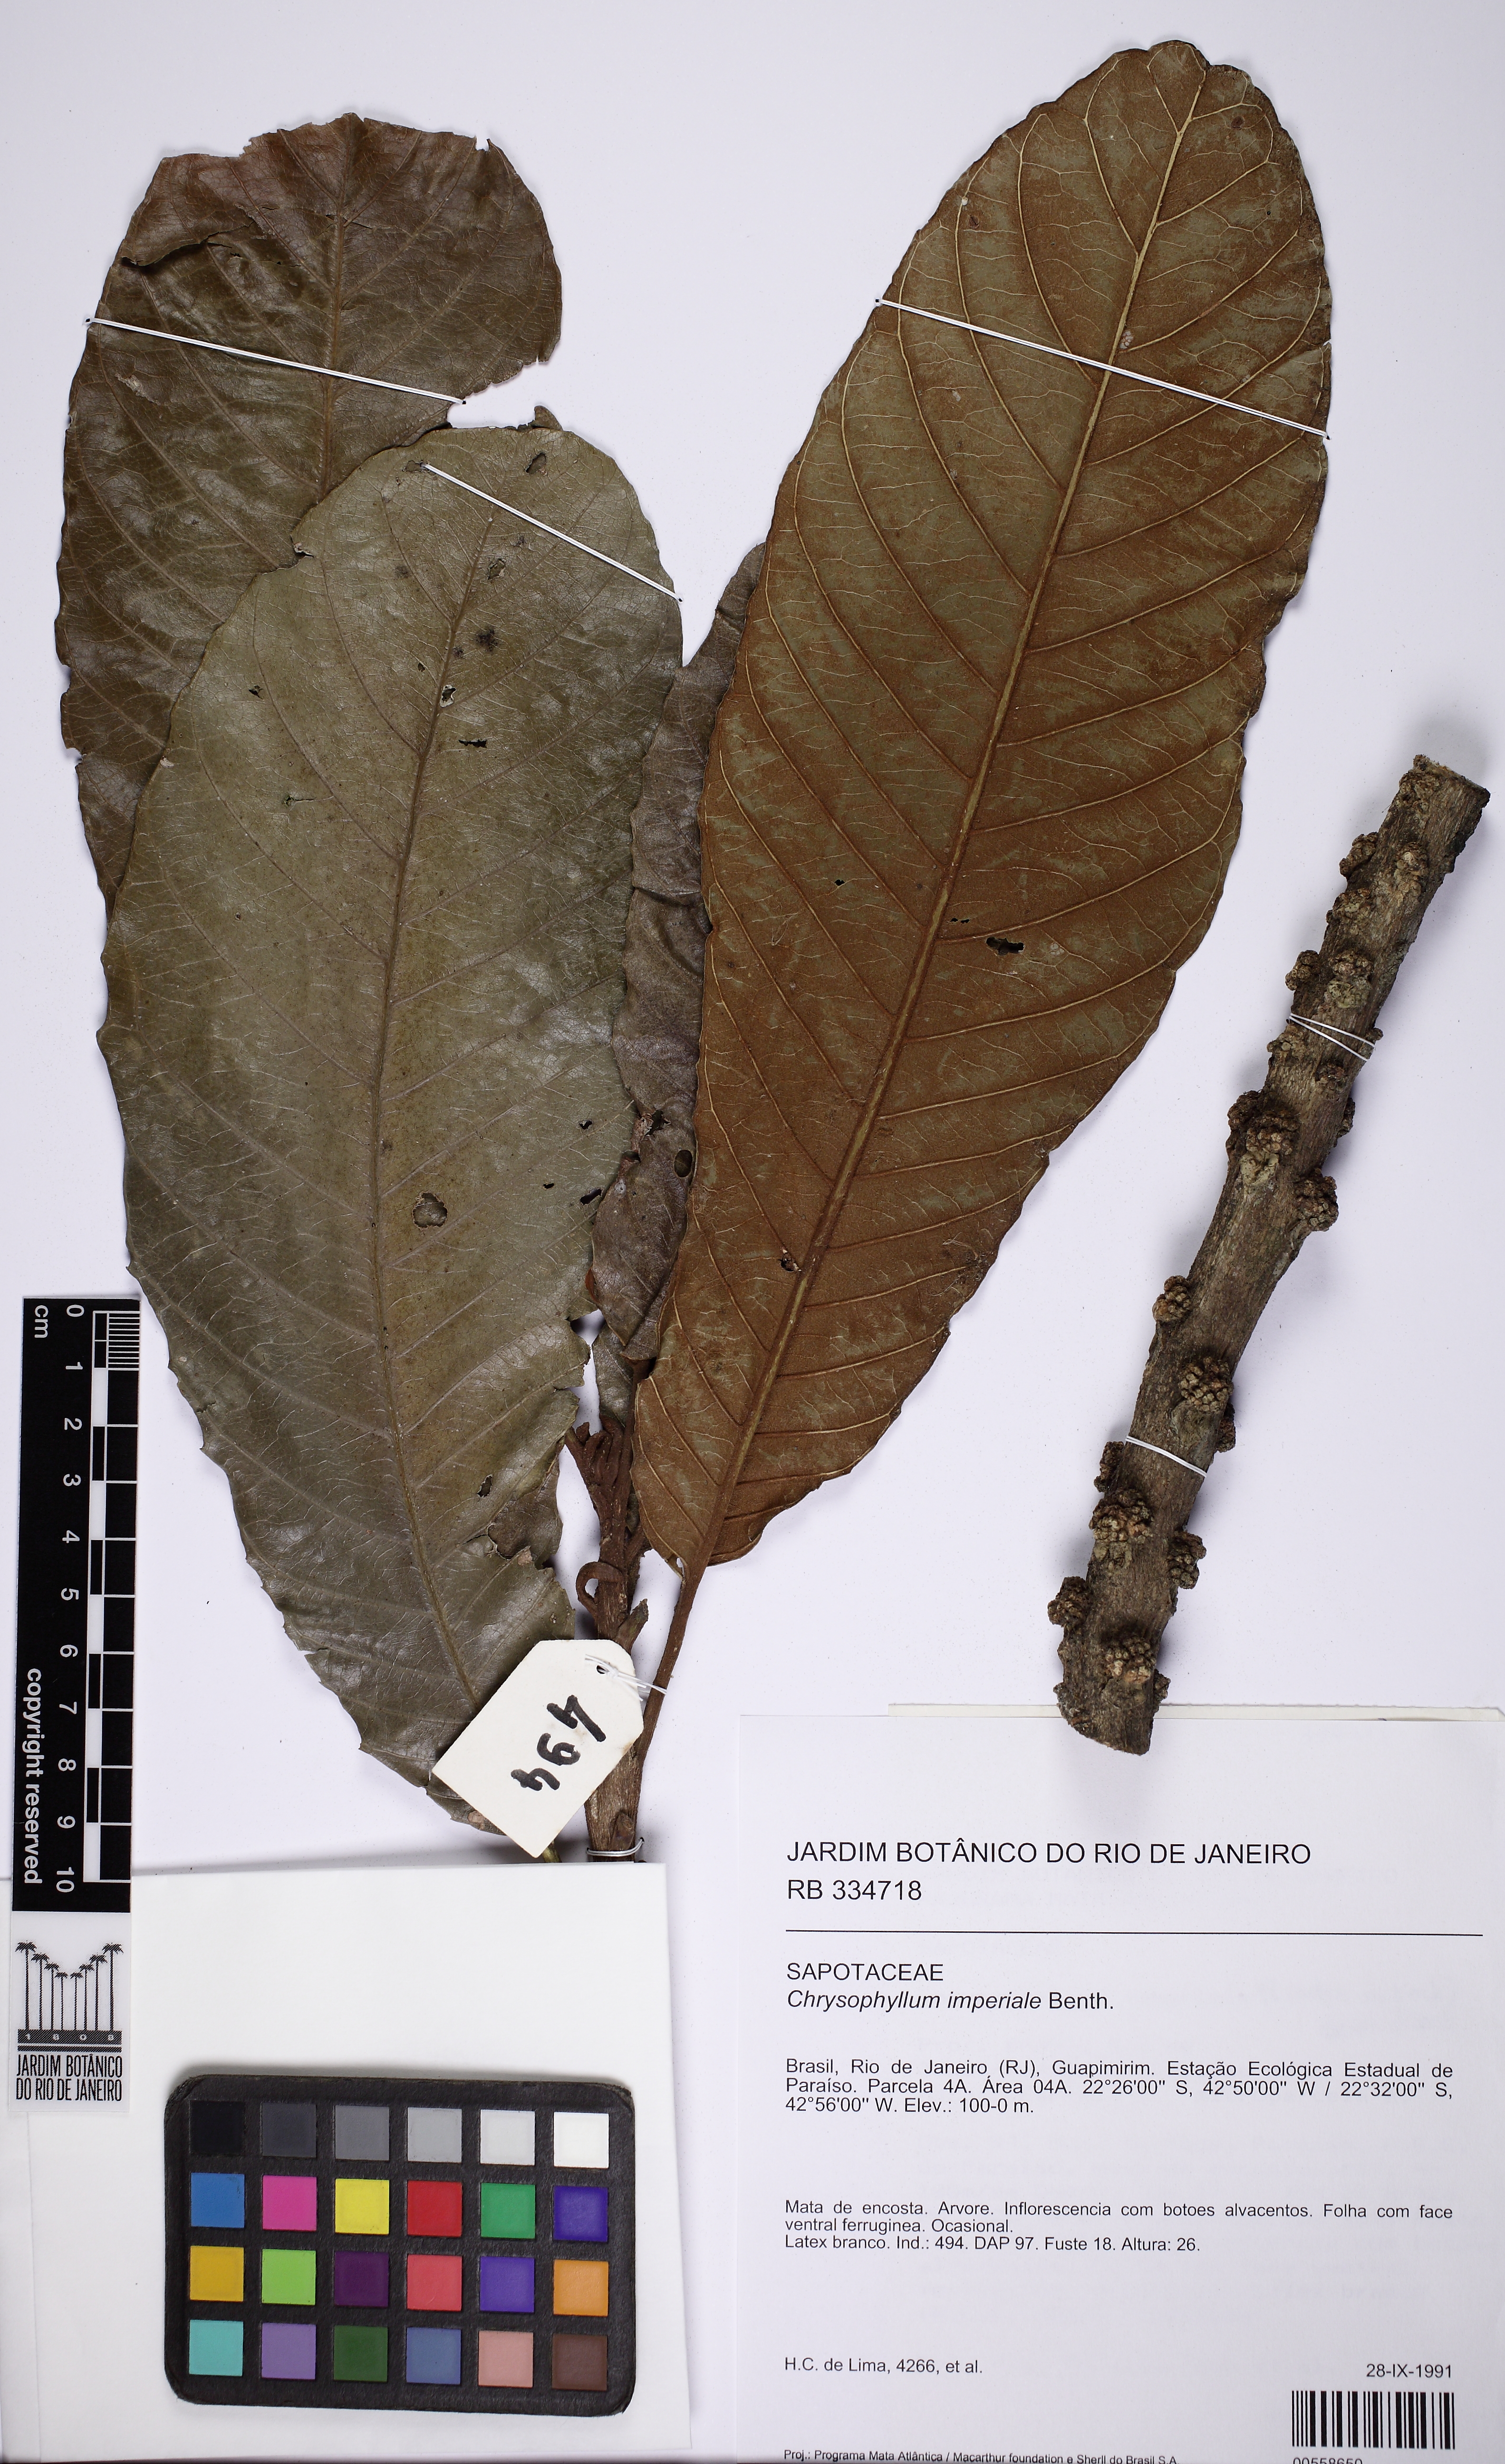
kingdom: Plantae
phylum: Tracheophyta
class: Magnoliopsida
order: Ericales
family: Sapotaceae
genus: Chrysophyllum
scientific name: Chrysophyllum imperiale
